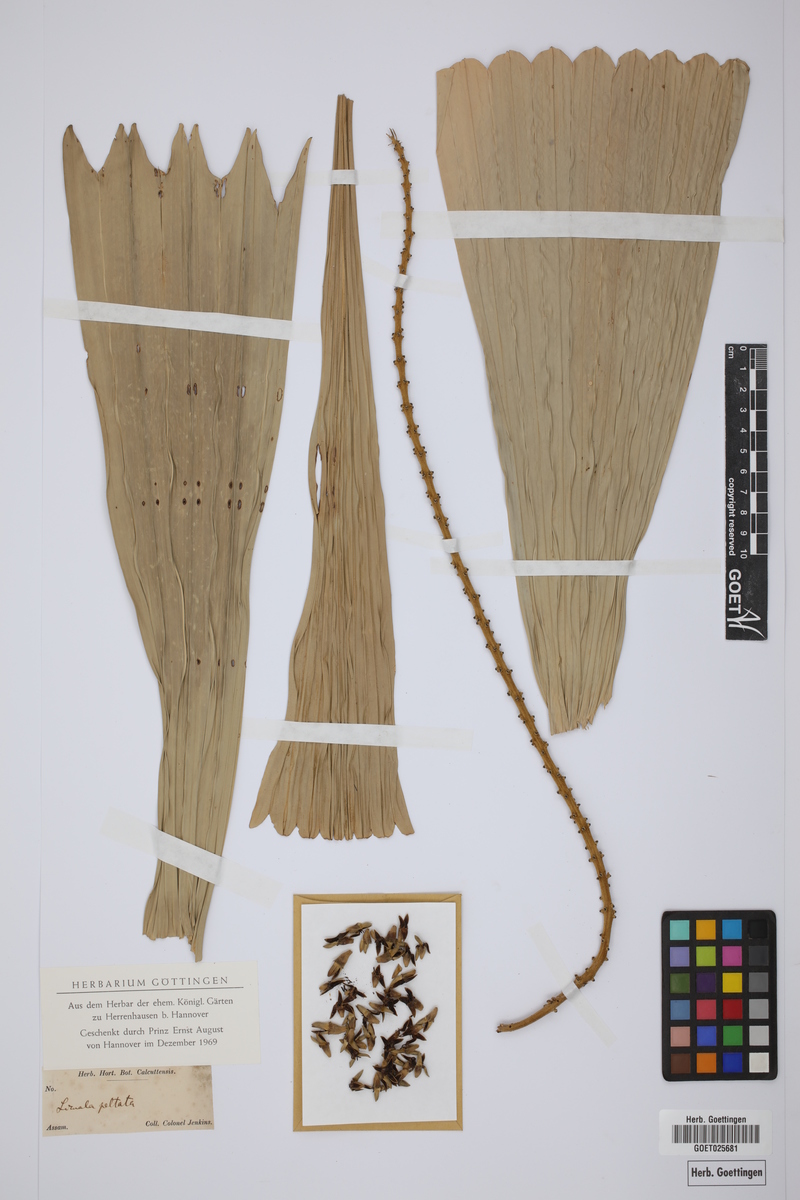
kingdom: Plantae
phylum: Tracheophyta
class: Liliopsida
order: Arecales
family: Arecaceae
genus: Licuala
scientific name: Licuala peltata
